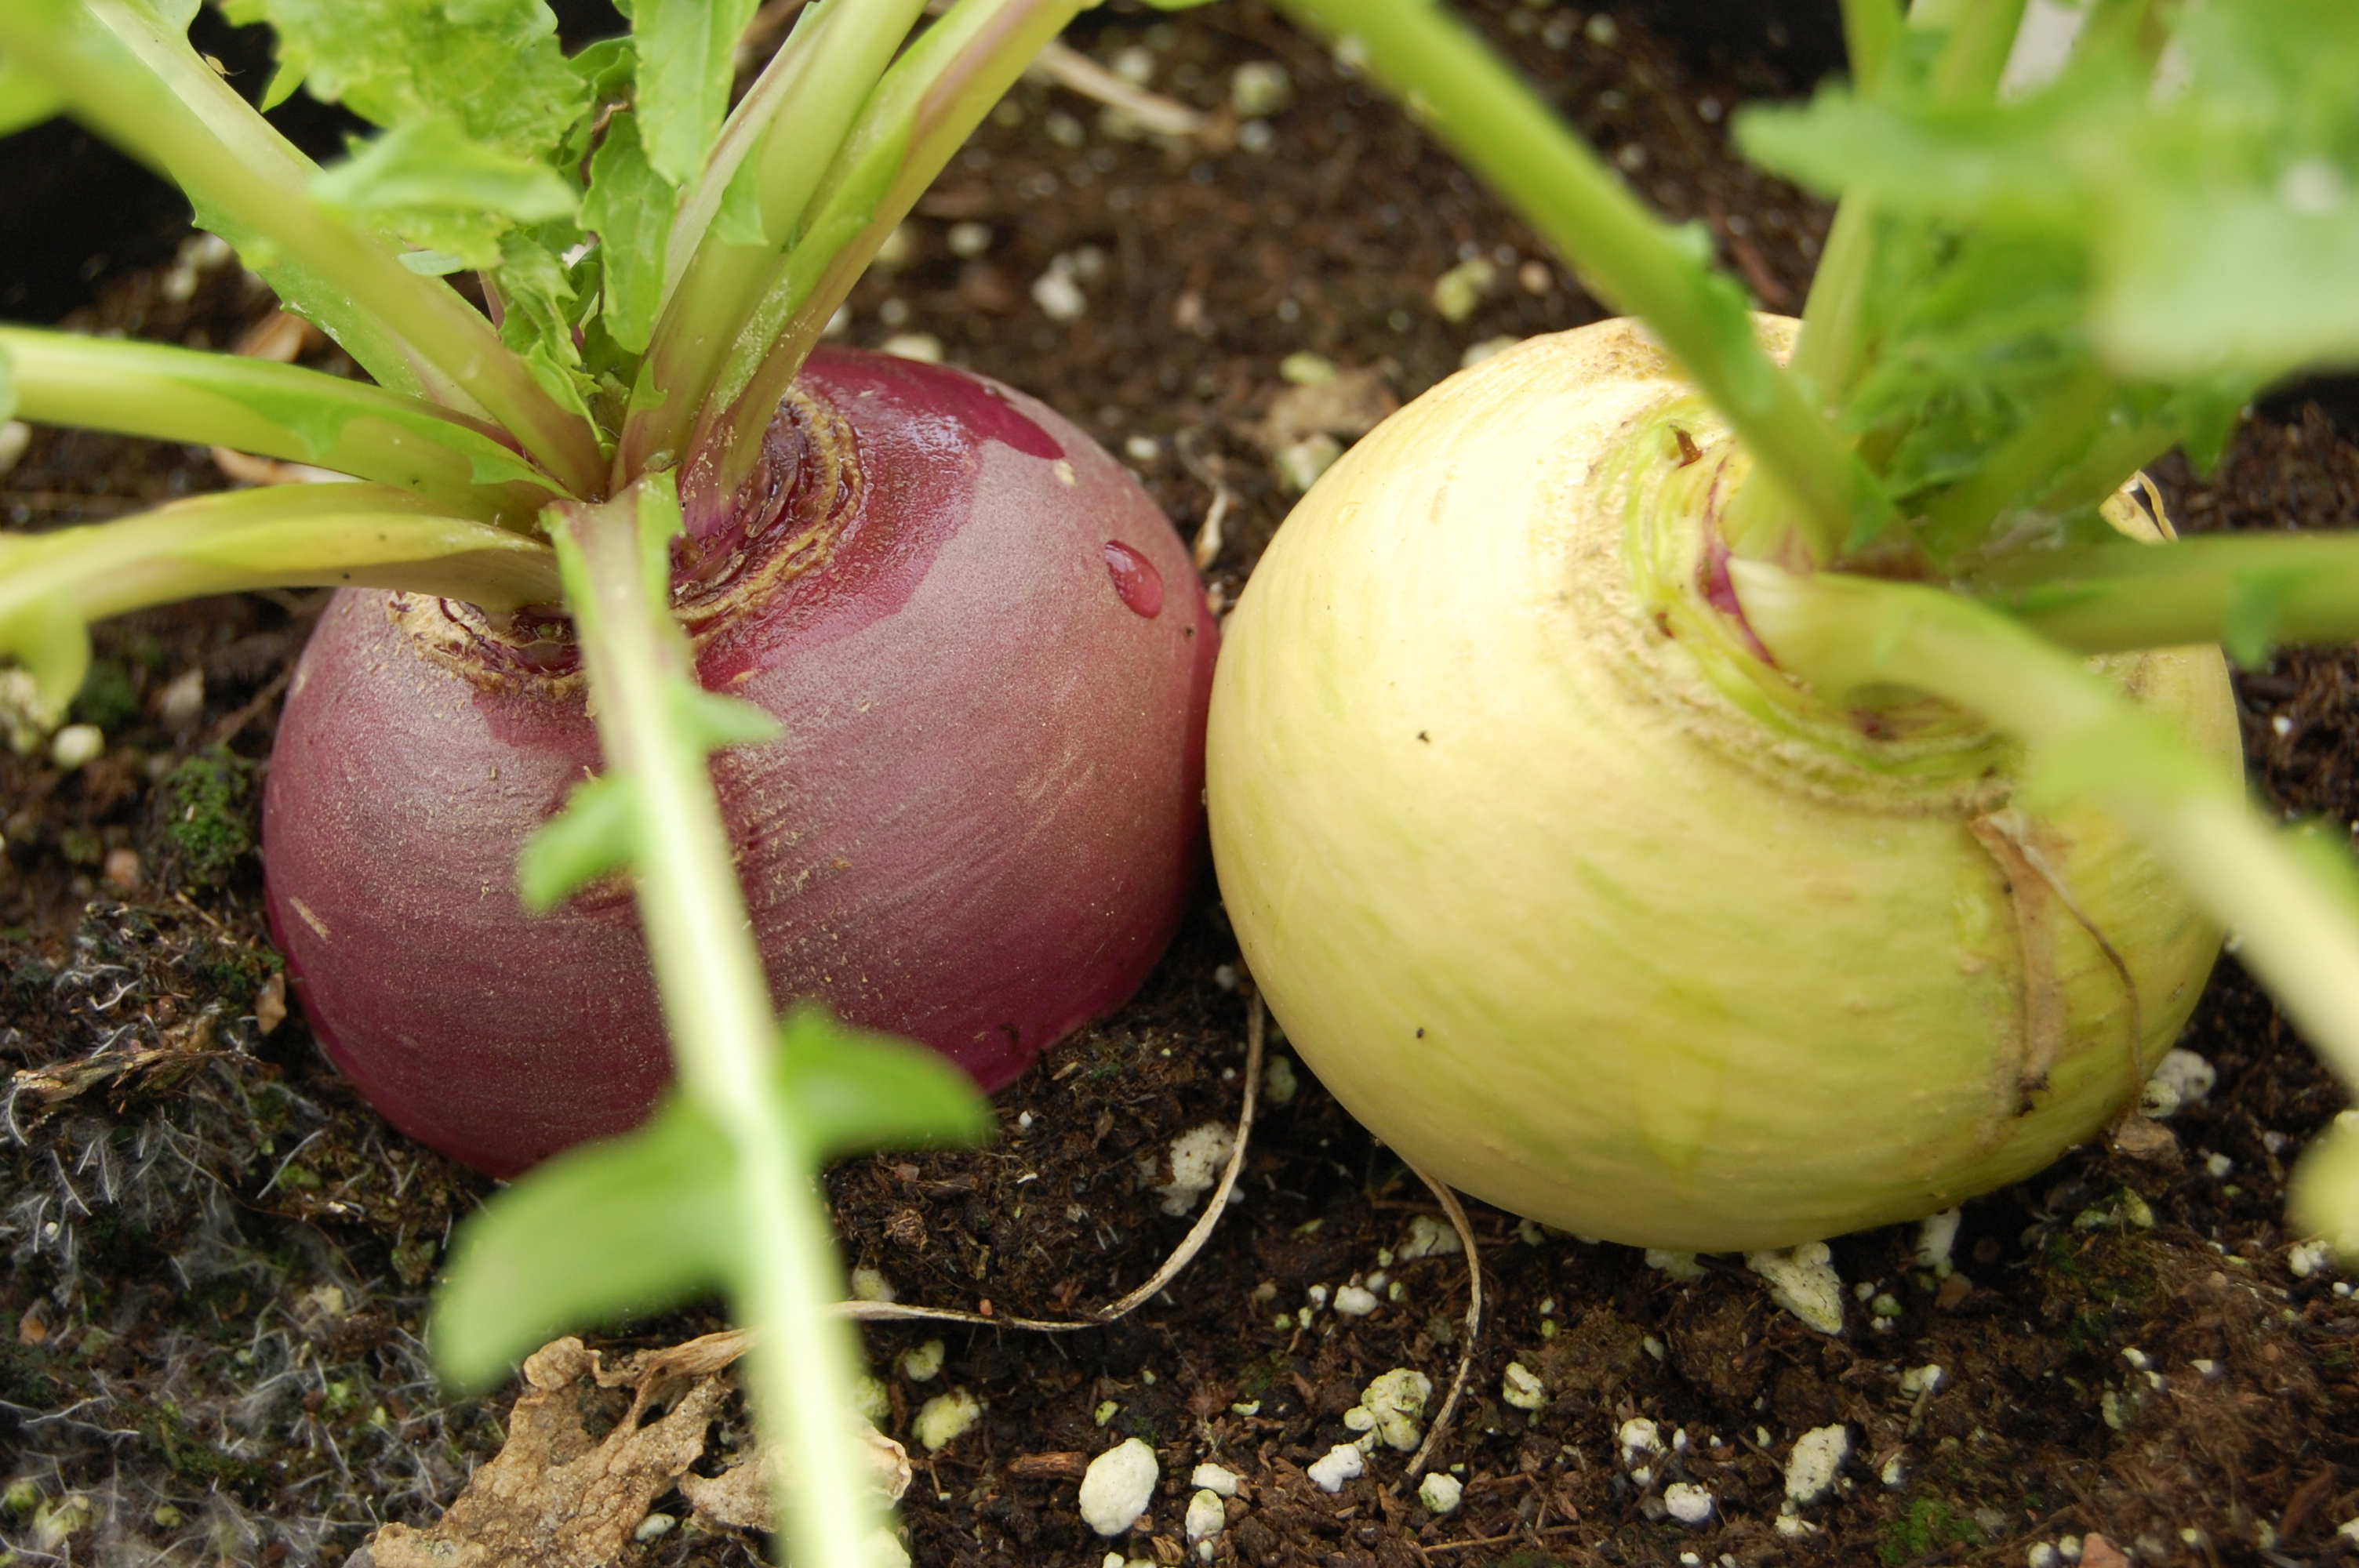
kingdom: Plantae
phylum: Tracheophyta
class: Magnoliopsida
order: Brassicales
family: Brassicaceae
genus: Brassica
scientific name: Brassica rapa
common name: Field mustard
